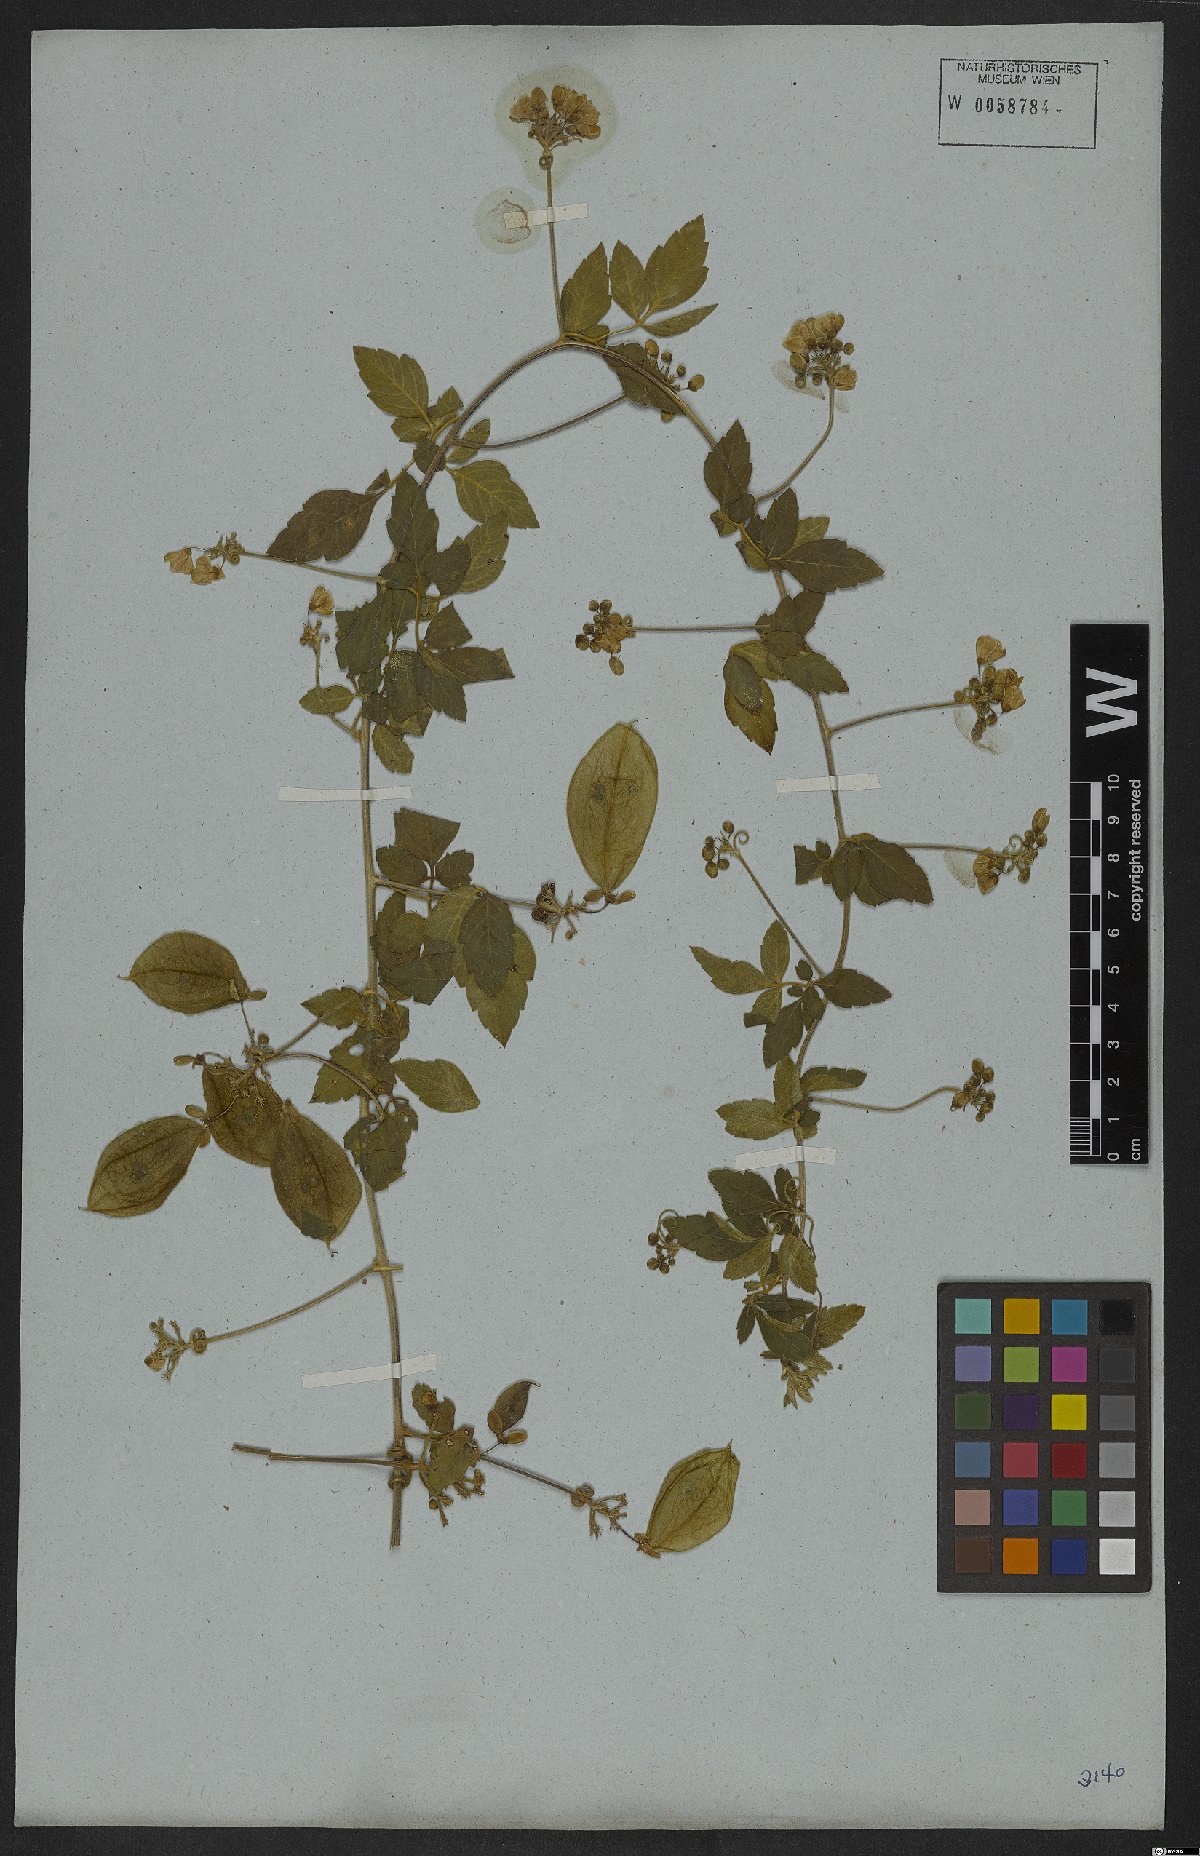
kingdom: Plantae
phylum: Tracheophyta
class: Magnoliopsida
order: Sapindales
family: Sapindaceae
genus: Cardiospermum
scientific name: Cardiospermum grandiflorum
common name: Balloon vine
